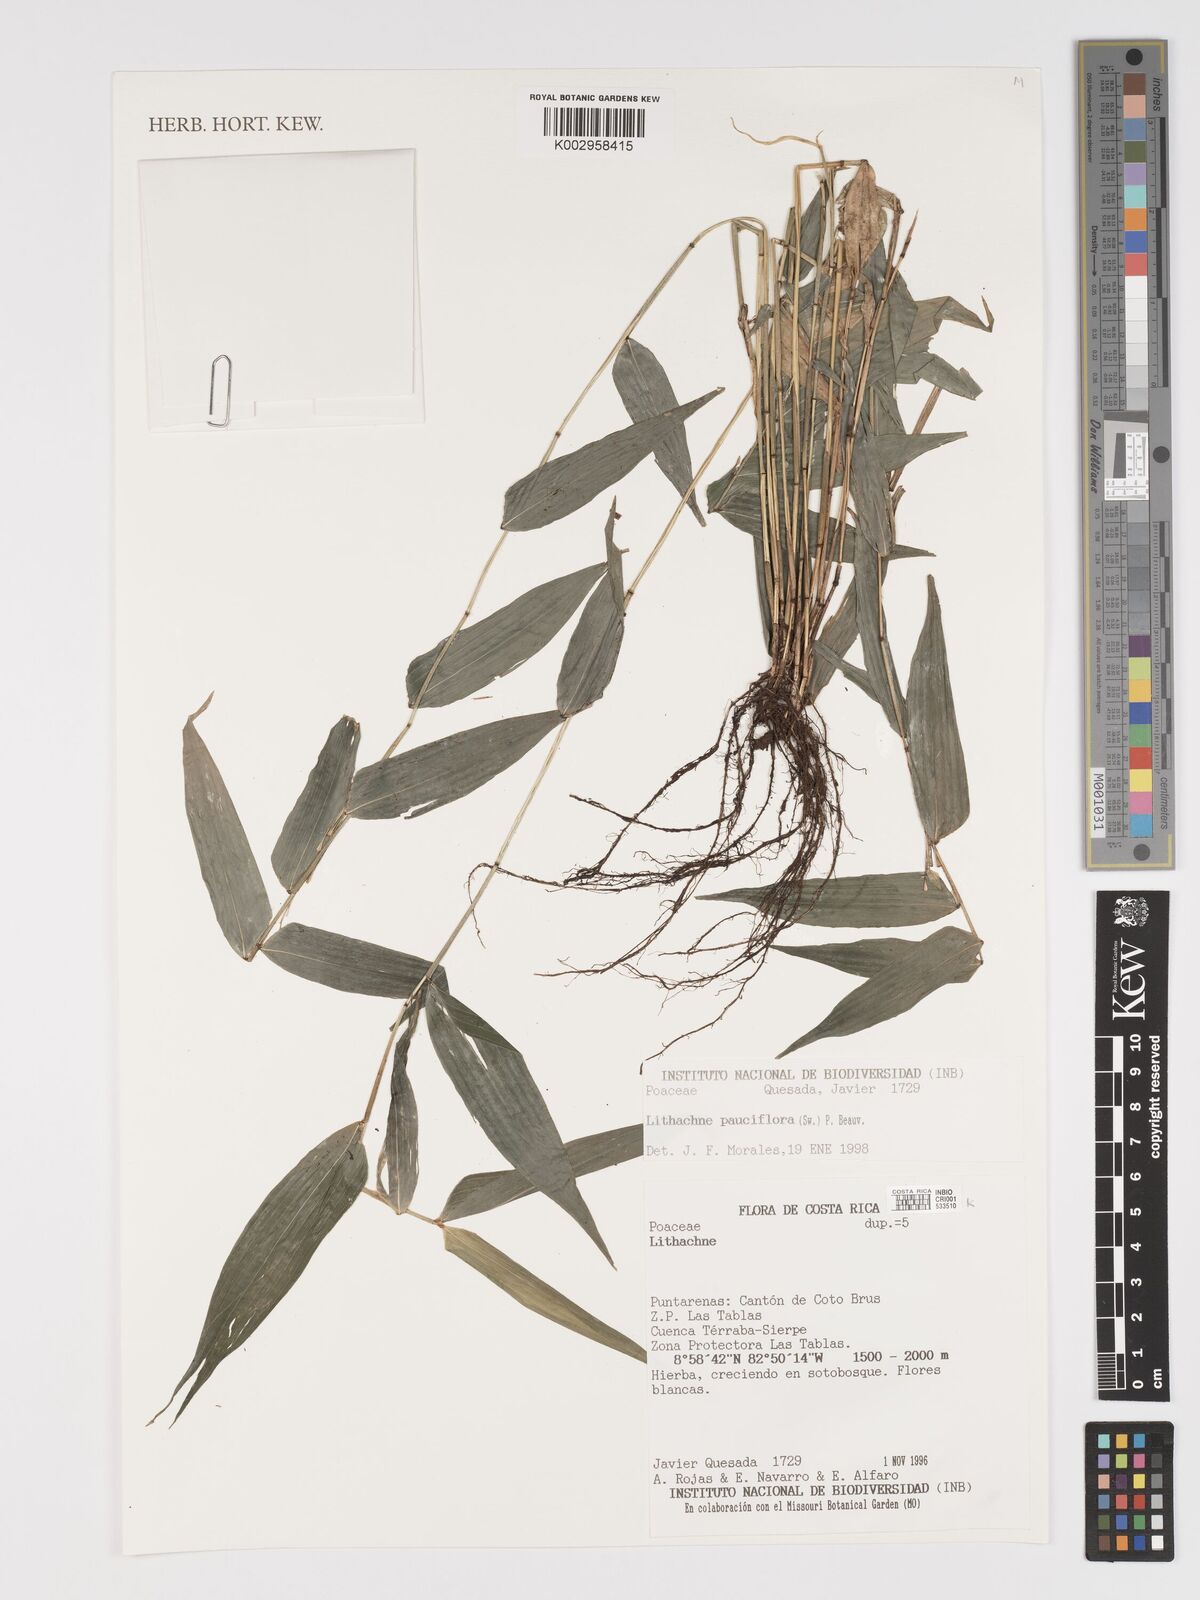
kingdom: Plantae
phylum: Tracheophyta
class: Liliopsida
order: Poales
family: Poaceae
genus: Lithachne
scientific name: Lithachne pauciflora
